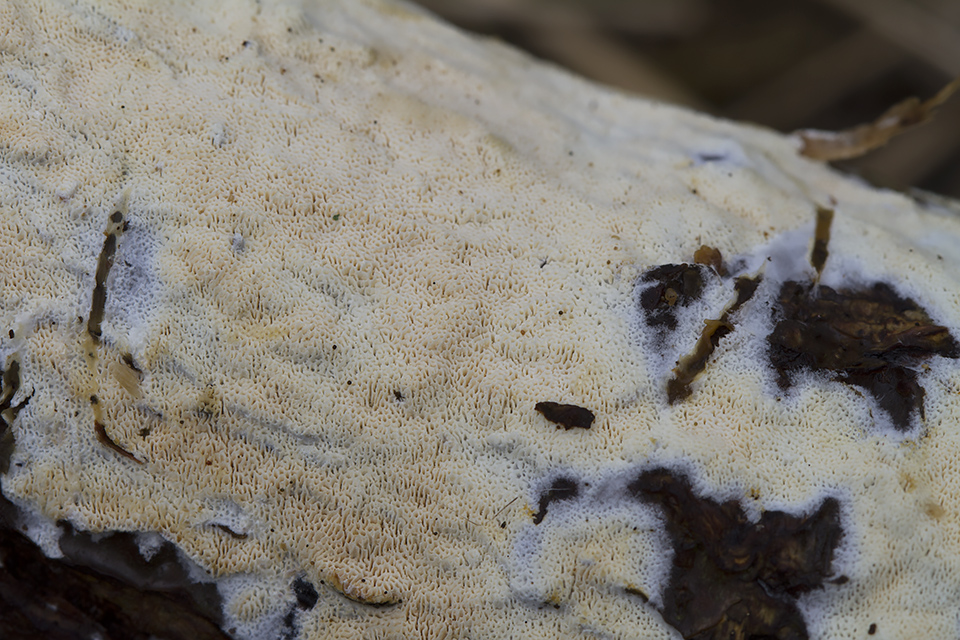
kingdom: Fungi
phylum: Basidiomycota
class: Agaricomycetes
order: Hymenochaetales
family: Schizoporaceae
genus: Xylodon
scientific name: Xylodon subtropicus
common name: labyrint-tandsvamp
